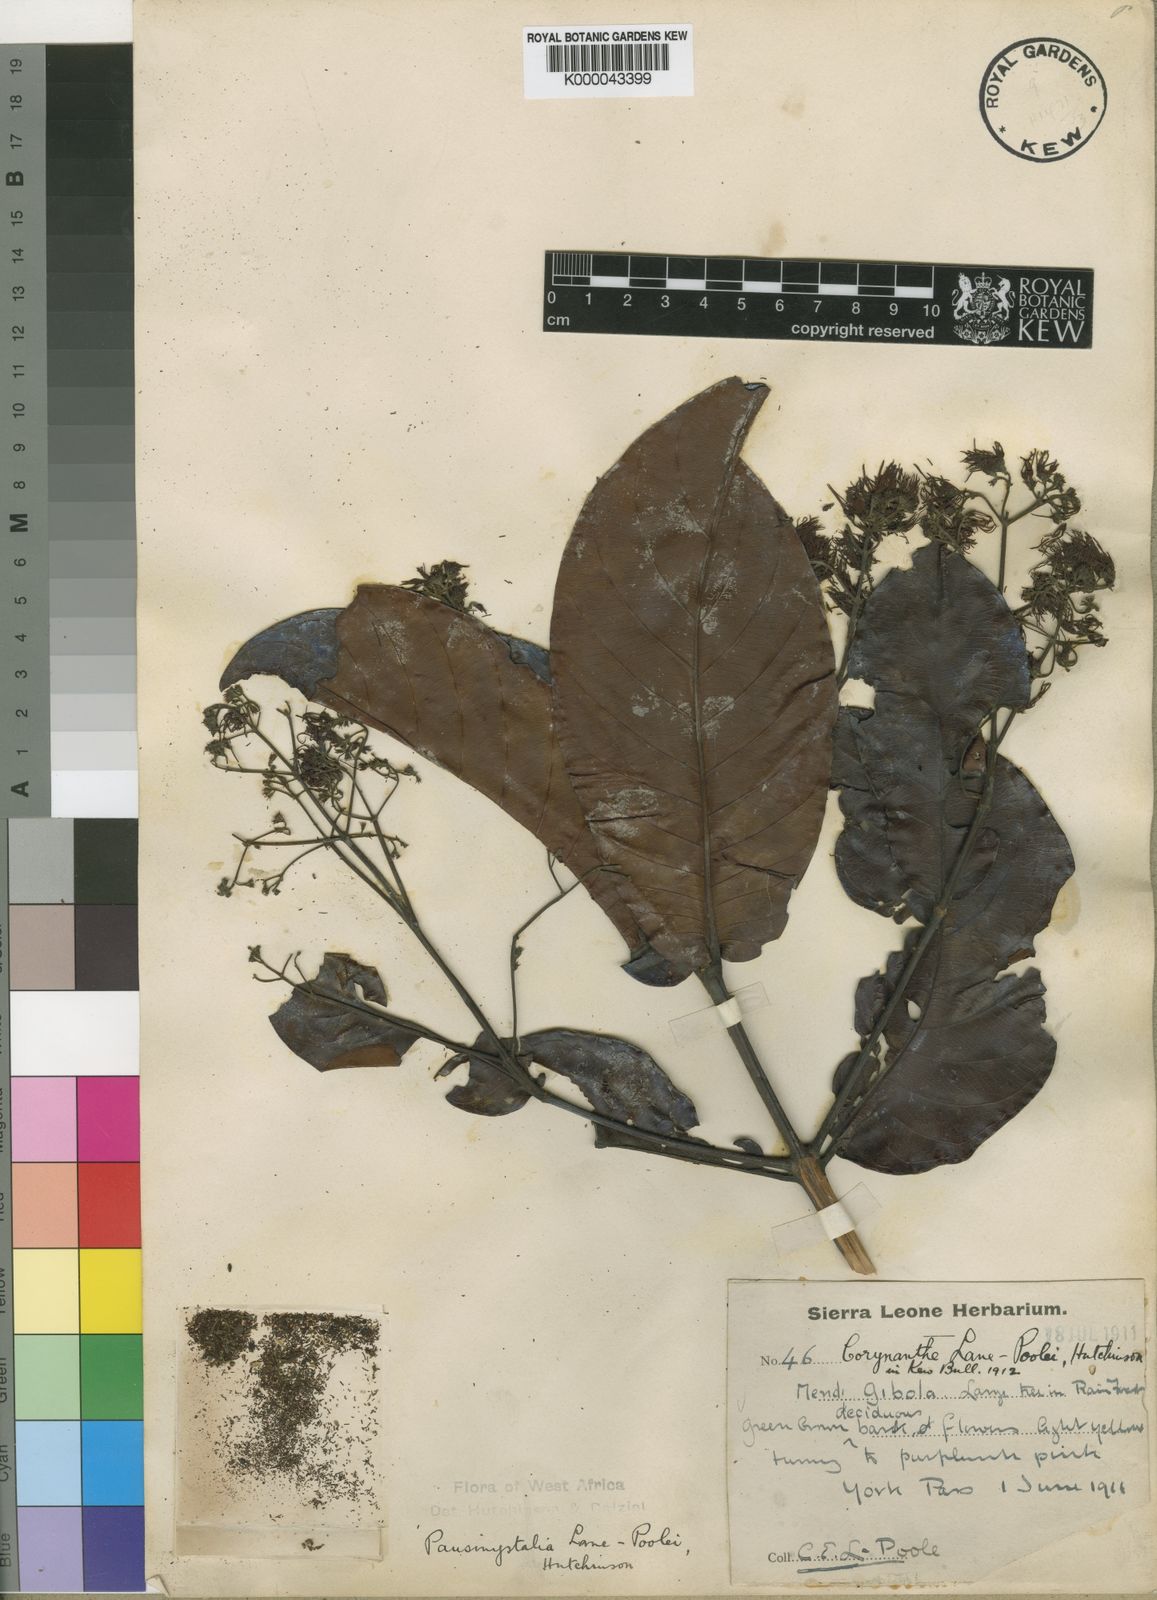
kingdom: Plantae
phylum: Tracheophyta
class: Magnoliopsida
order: Gentianales
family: Rubiaceae
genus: Corynanthe
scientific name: Corynanthe lane-poolei
